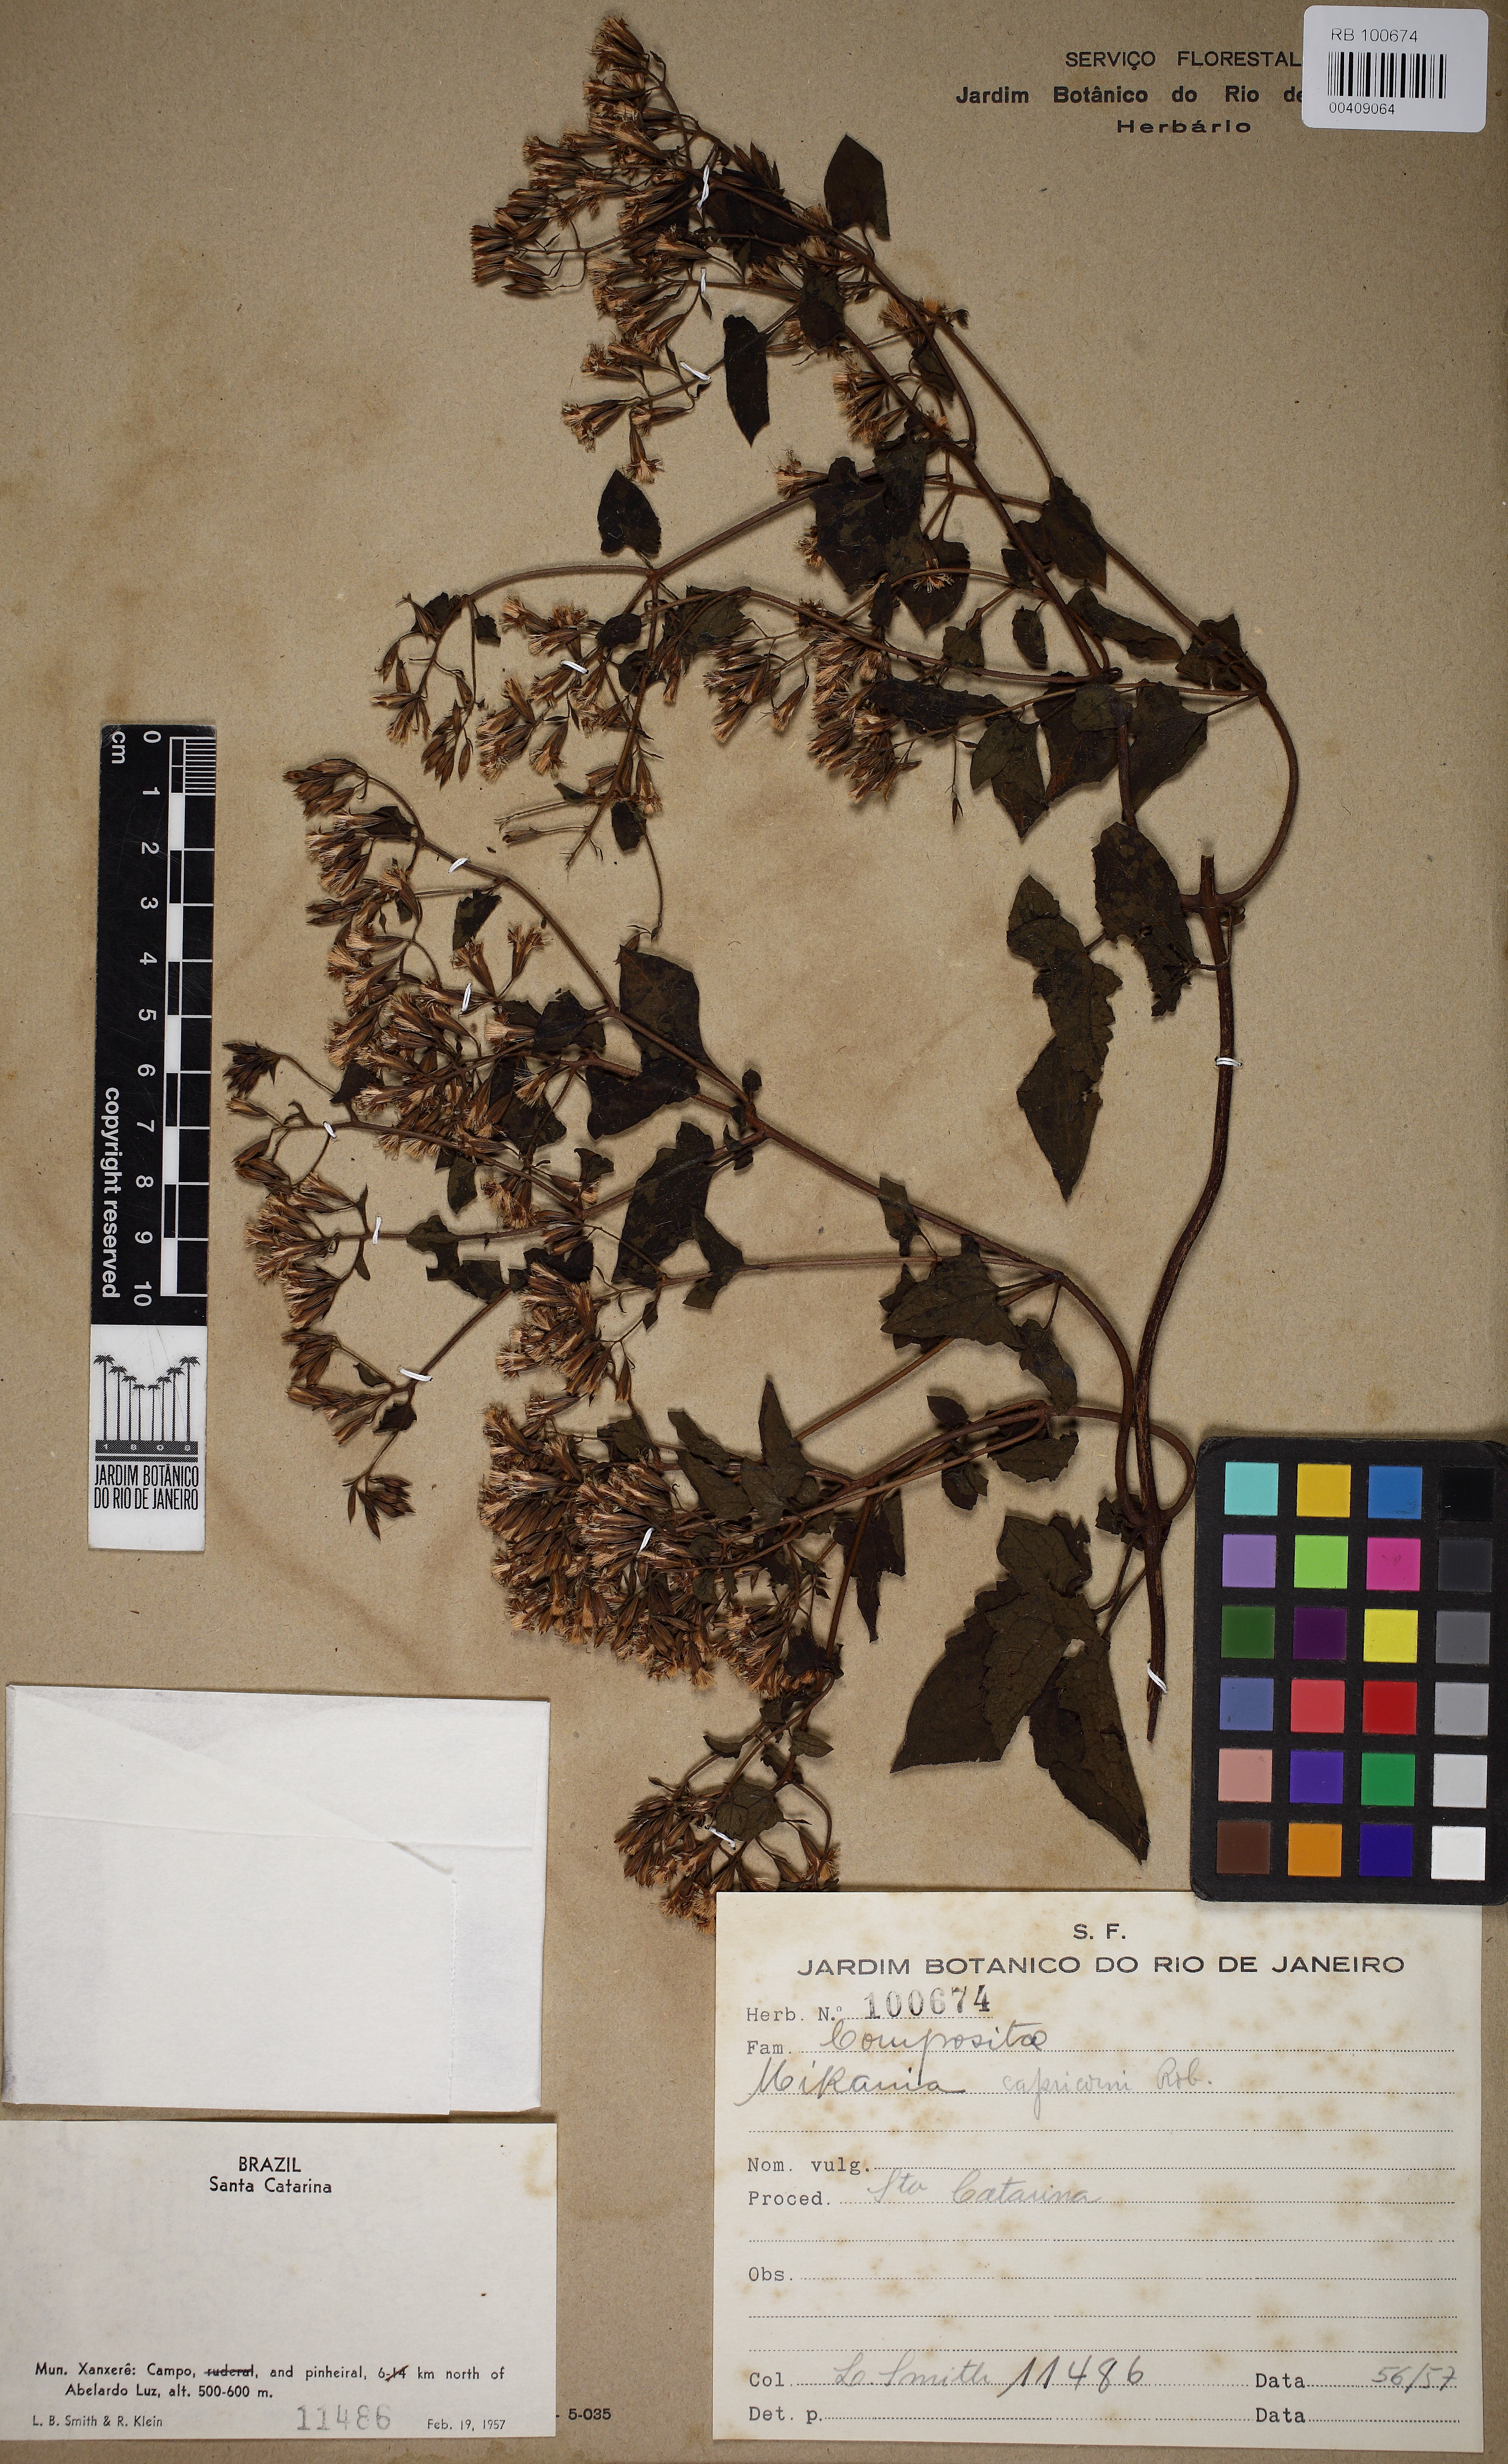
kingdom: Plantae
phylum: Tracheophyta
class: Magnoliopsida
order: Asterales
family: Asteraceae
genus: Mikania
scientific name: Mikania capricorni
